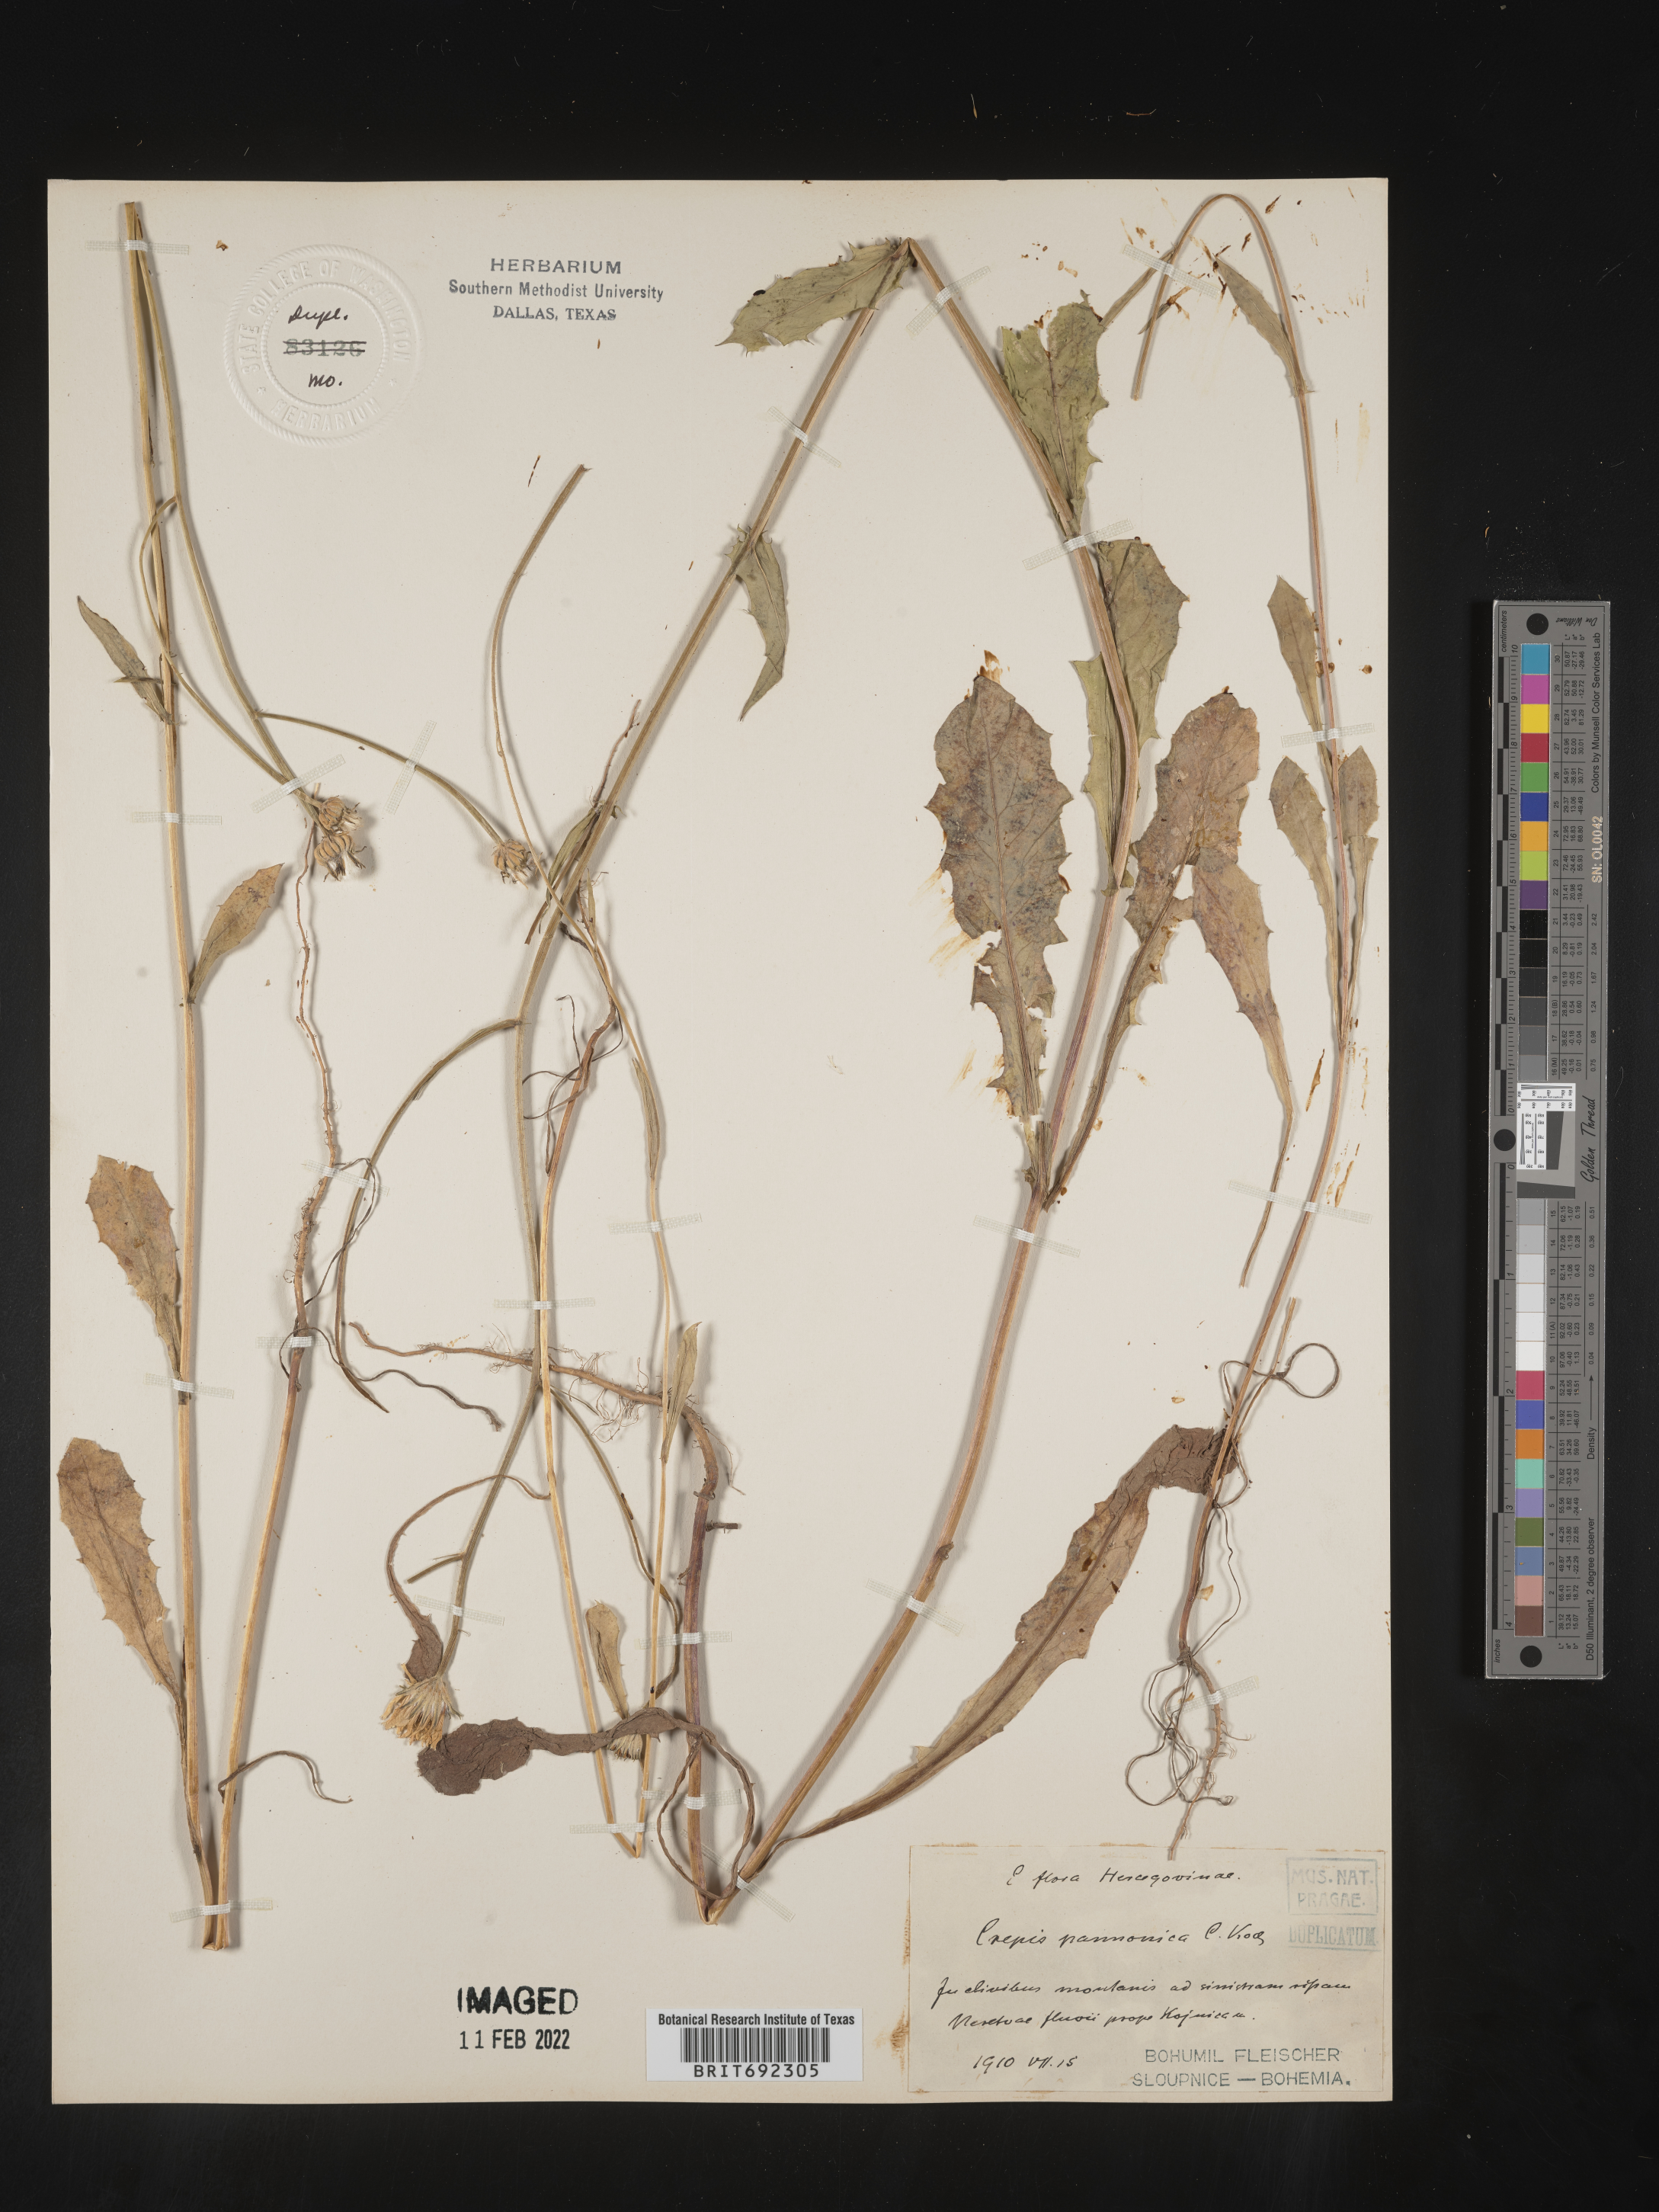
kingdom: Plantae
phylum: Tracheophyta
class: Magnoliopsida
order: Asterales
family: Asteraceae
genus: Crepis
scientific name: Crepis
